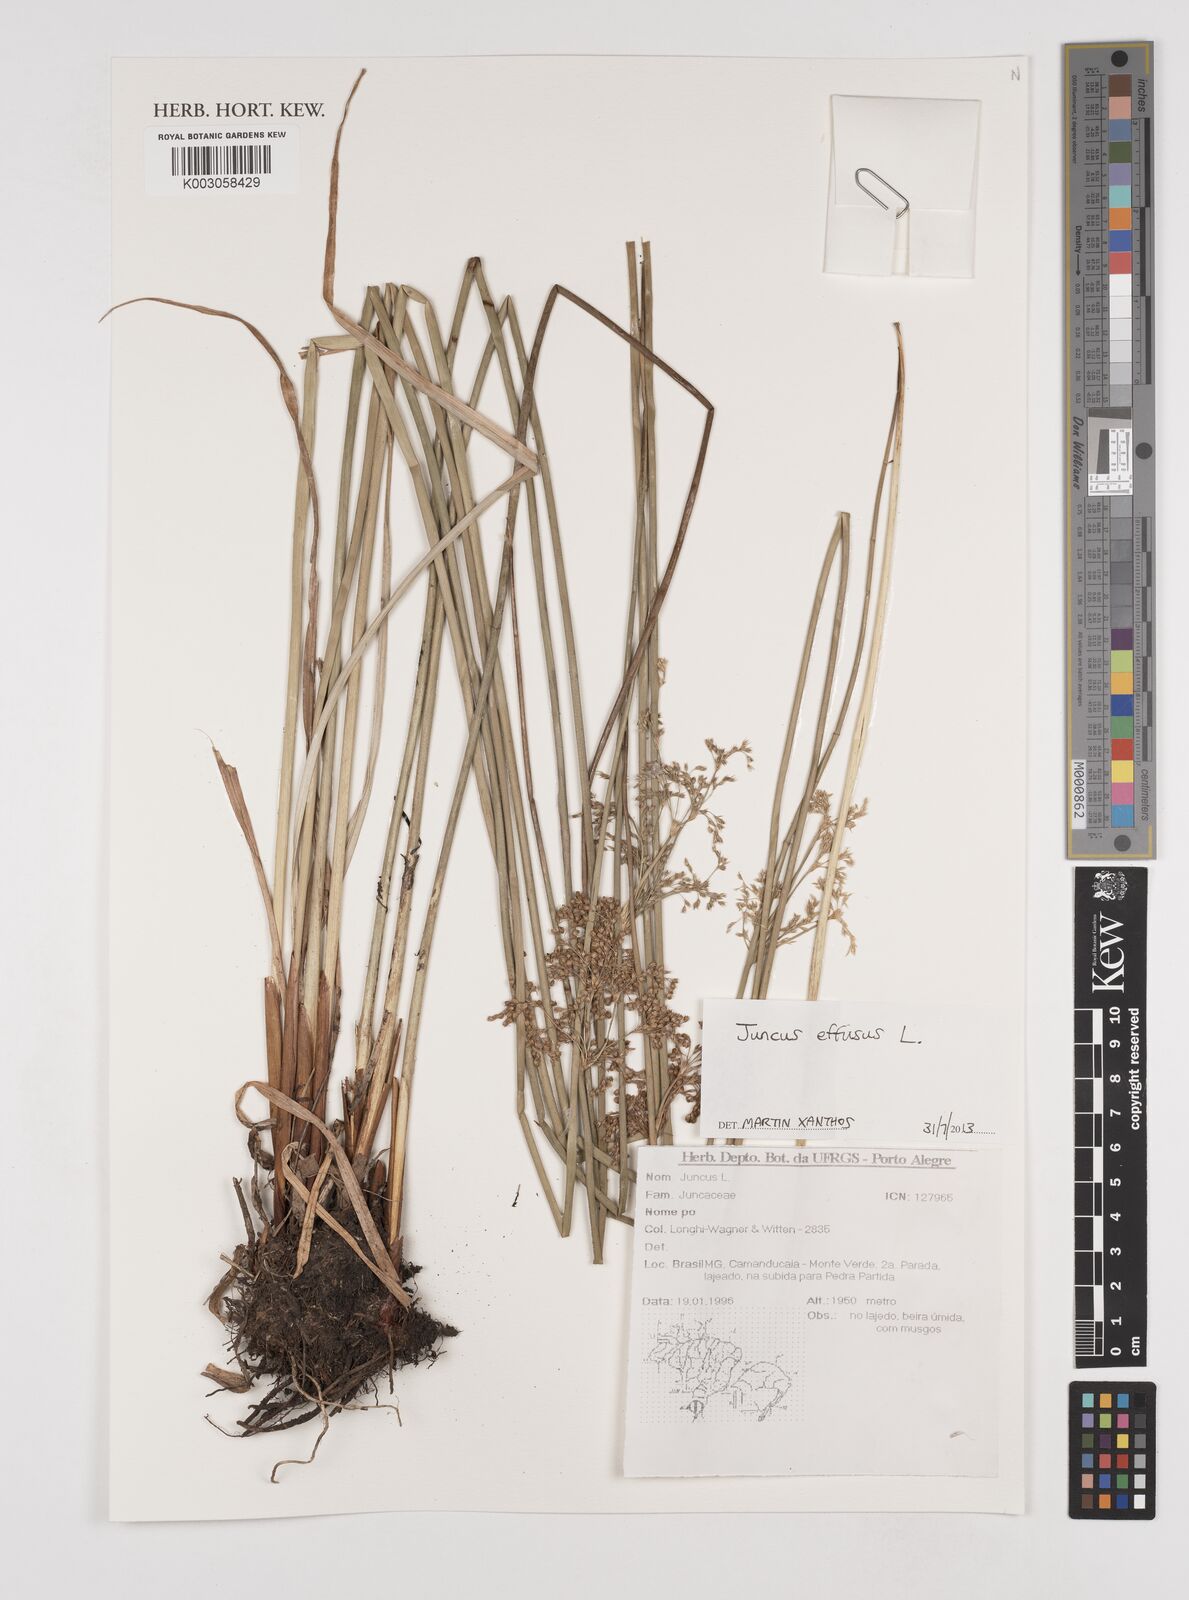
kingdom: Plantae
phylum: Tracheophyta
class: Liliopsida
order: Poales
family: Juncaceae
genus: Juncus
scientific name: Juncus effusus
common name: Soft rush
